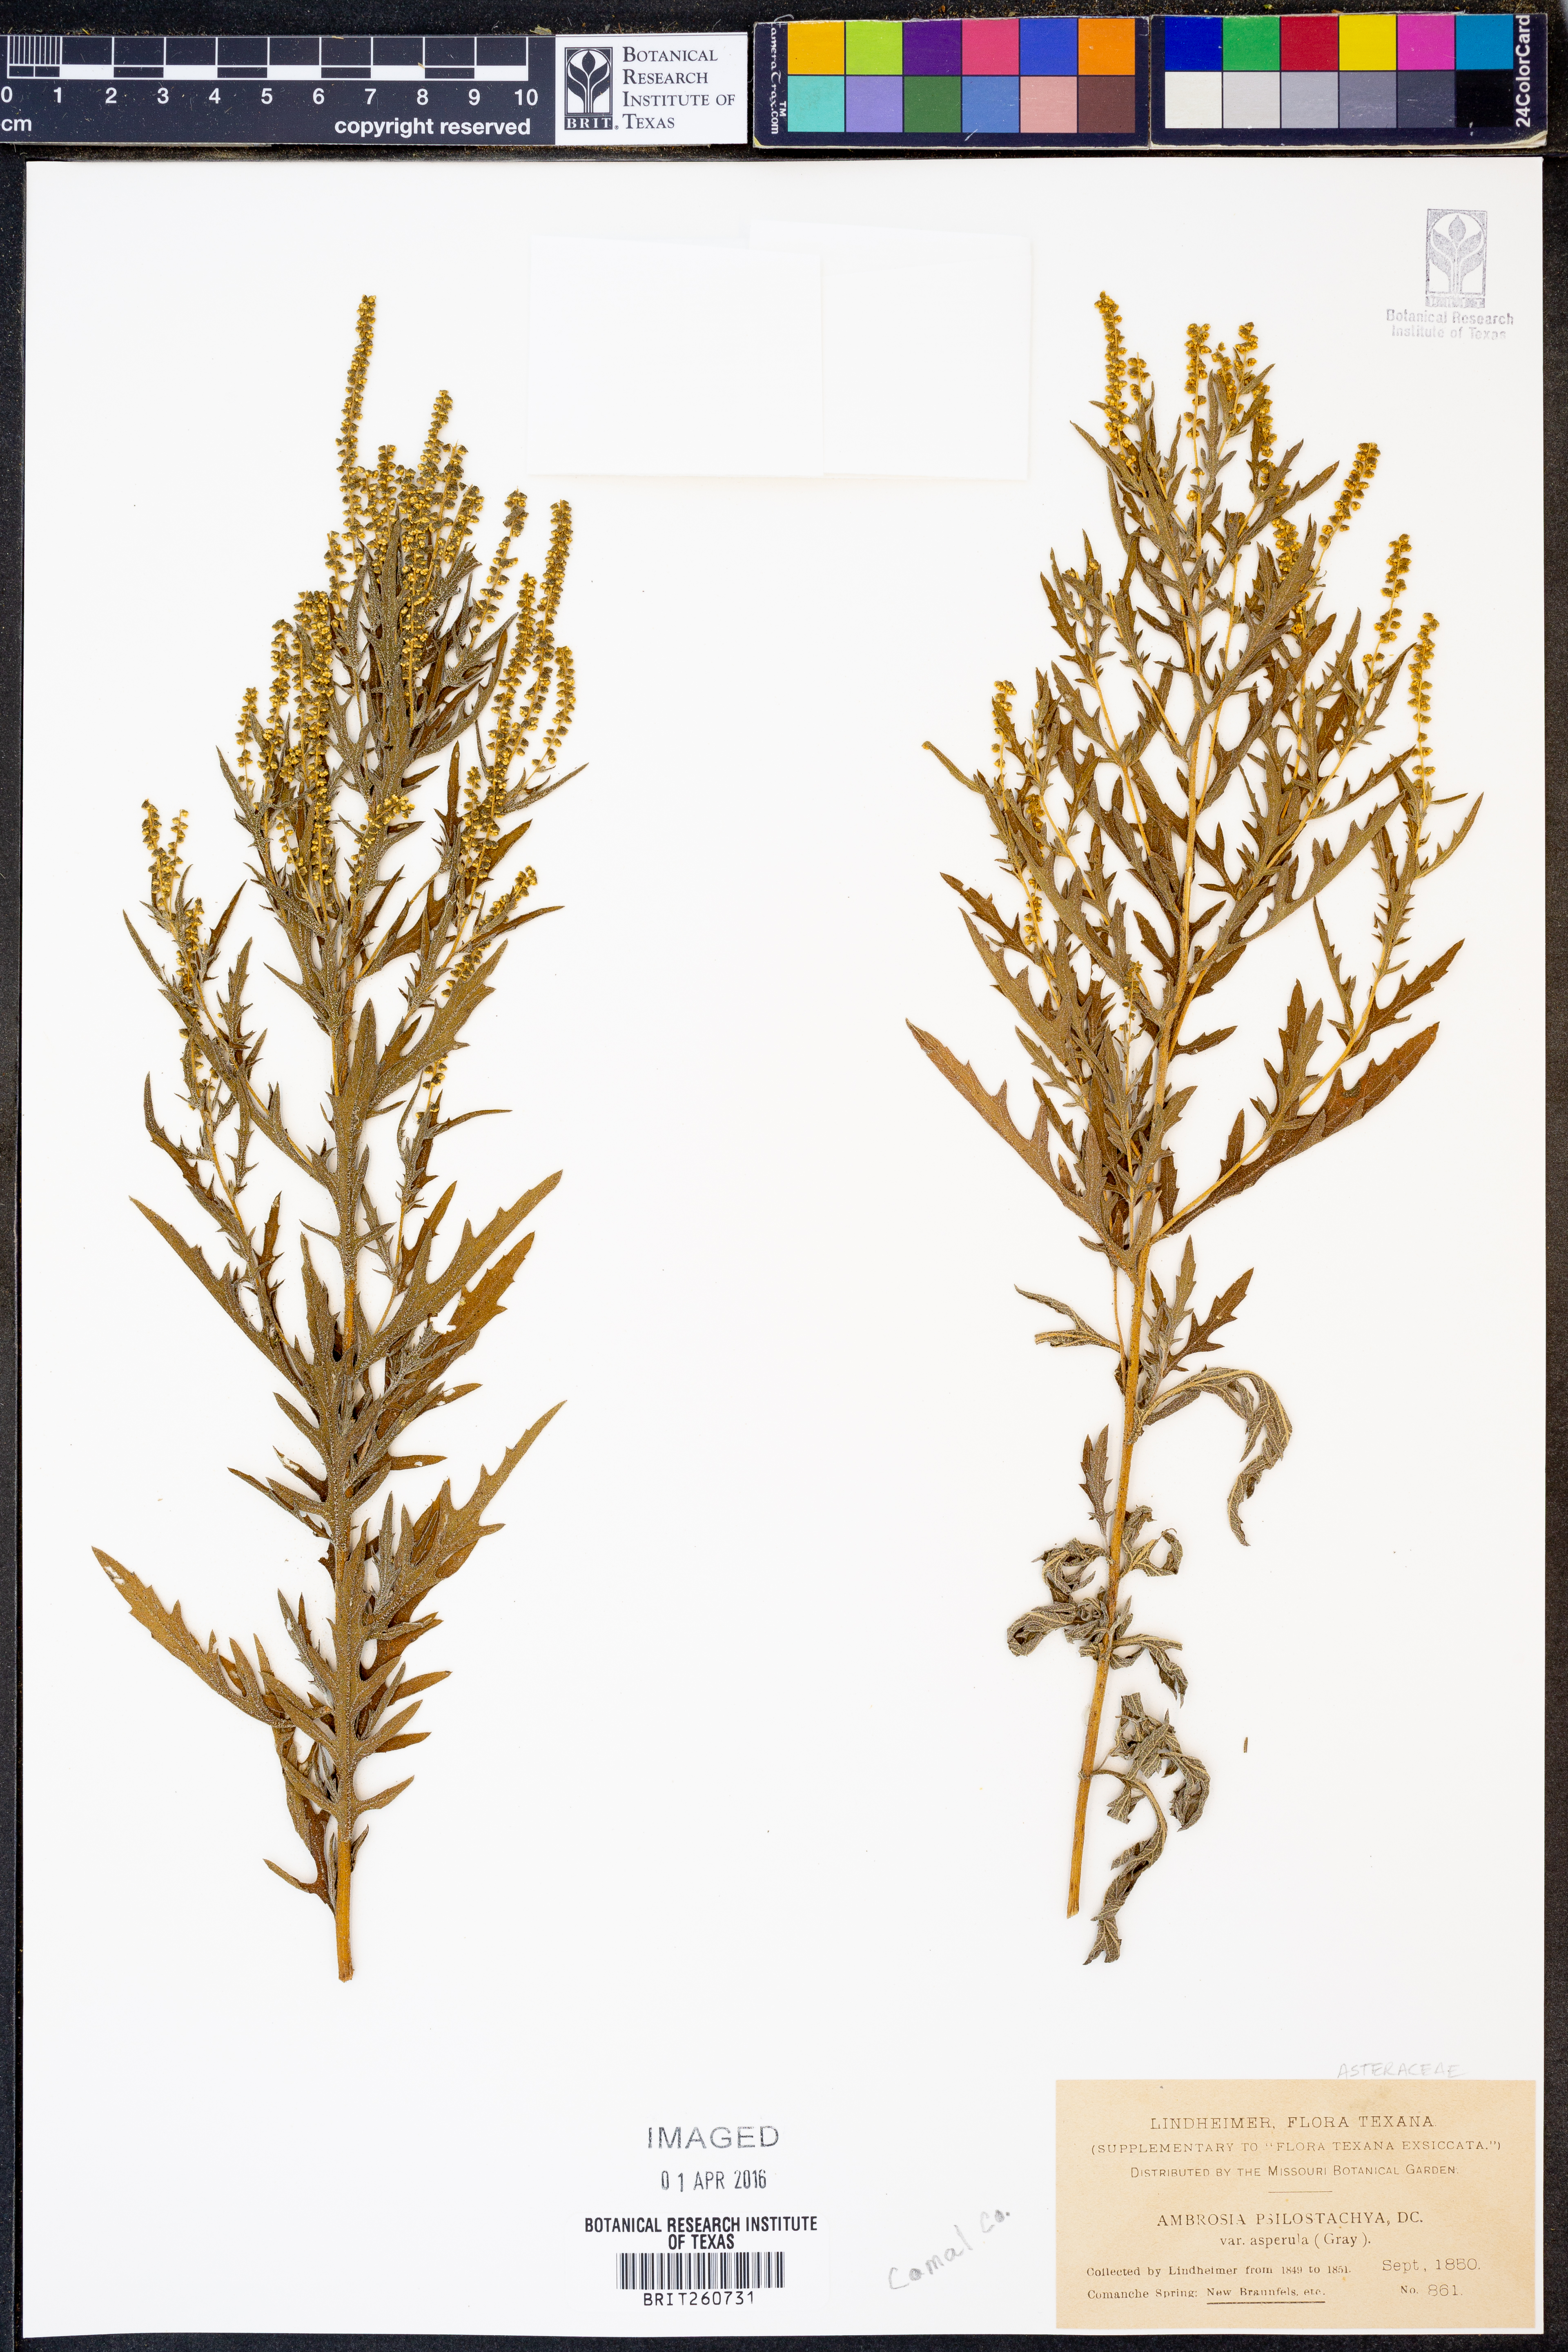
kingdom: Plantae
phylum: Tracheophyta
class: Magnoliopsida
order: Asterales
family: Asteraceae
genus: Ambrosia
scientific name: Ambrosia psilostachya
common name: Perennial ragweed
